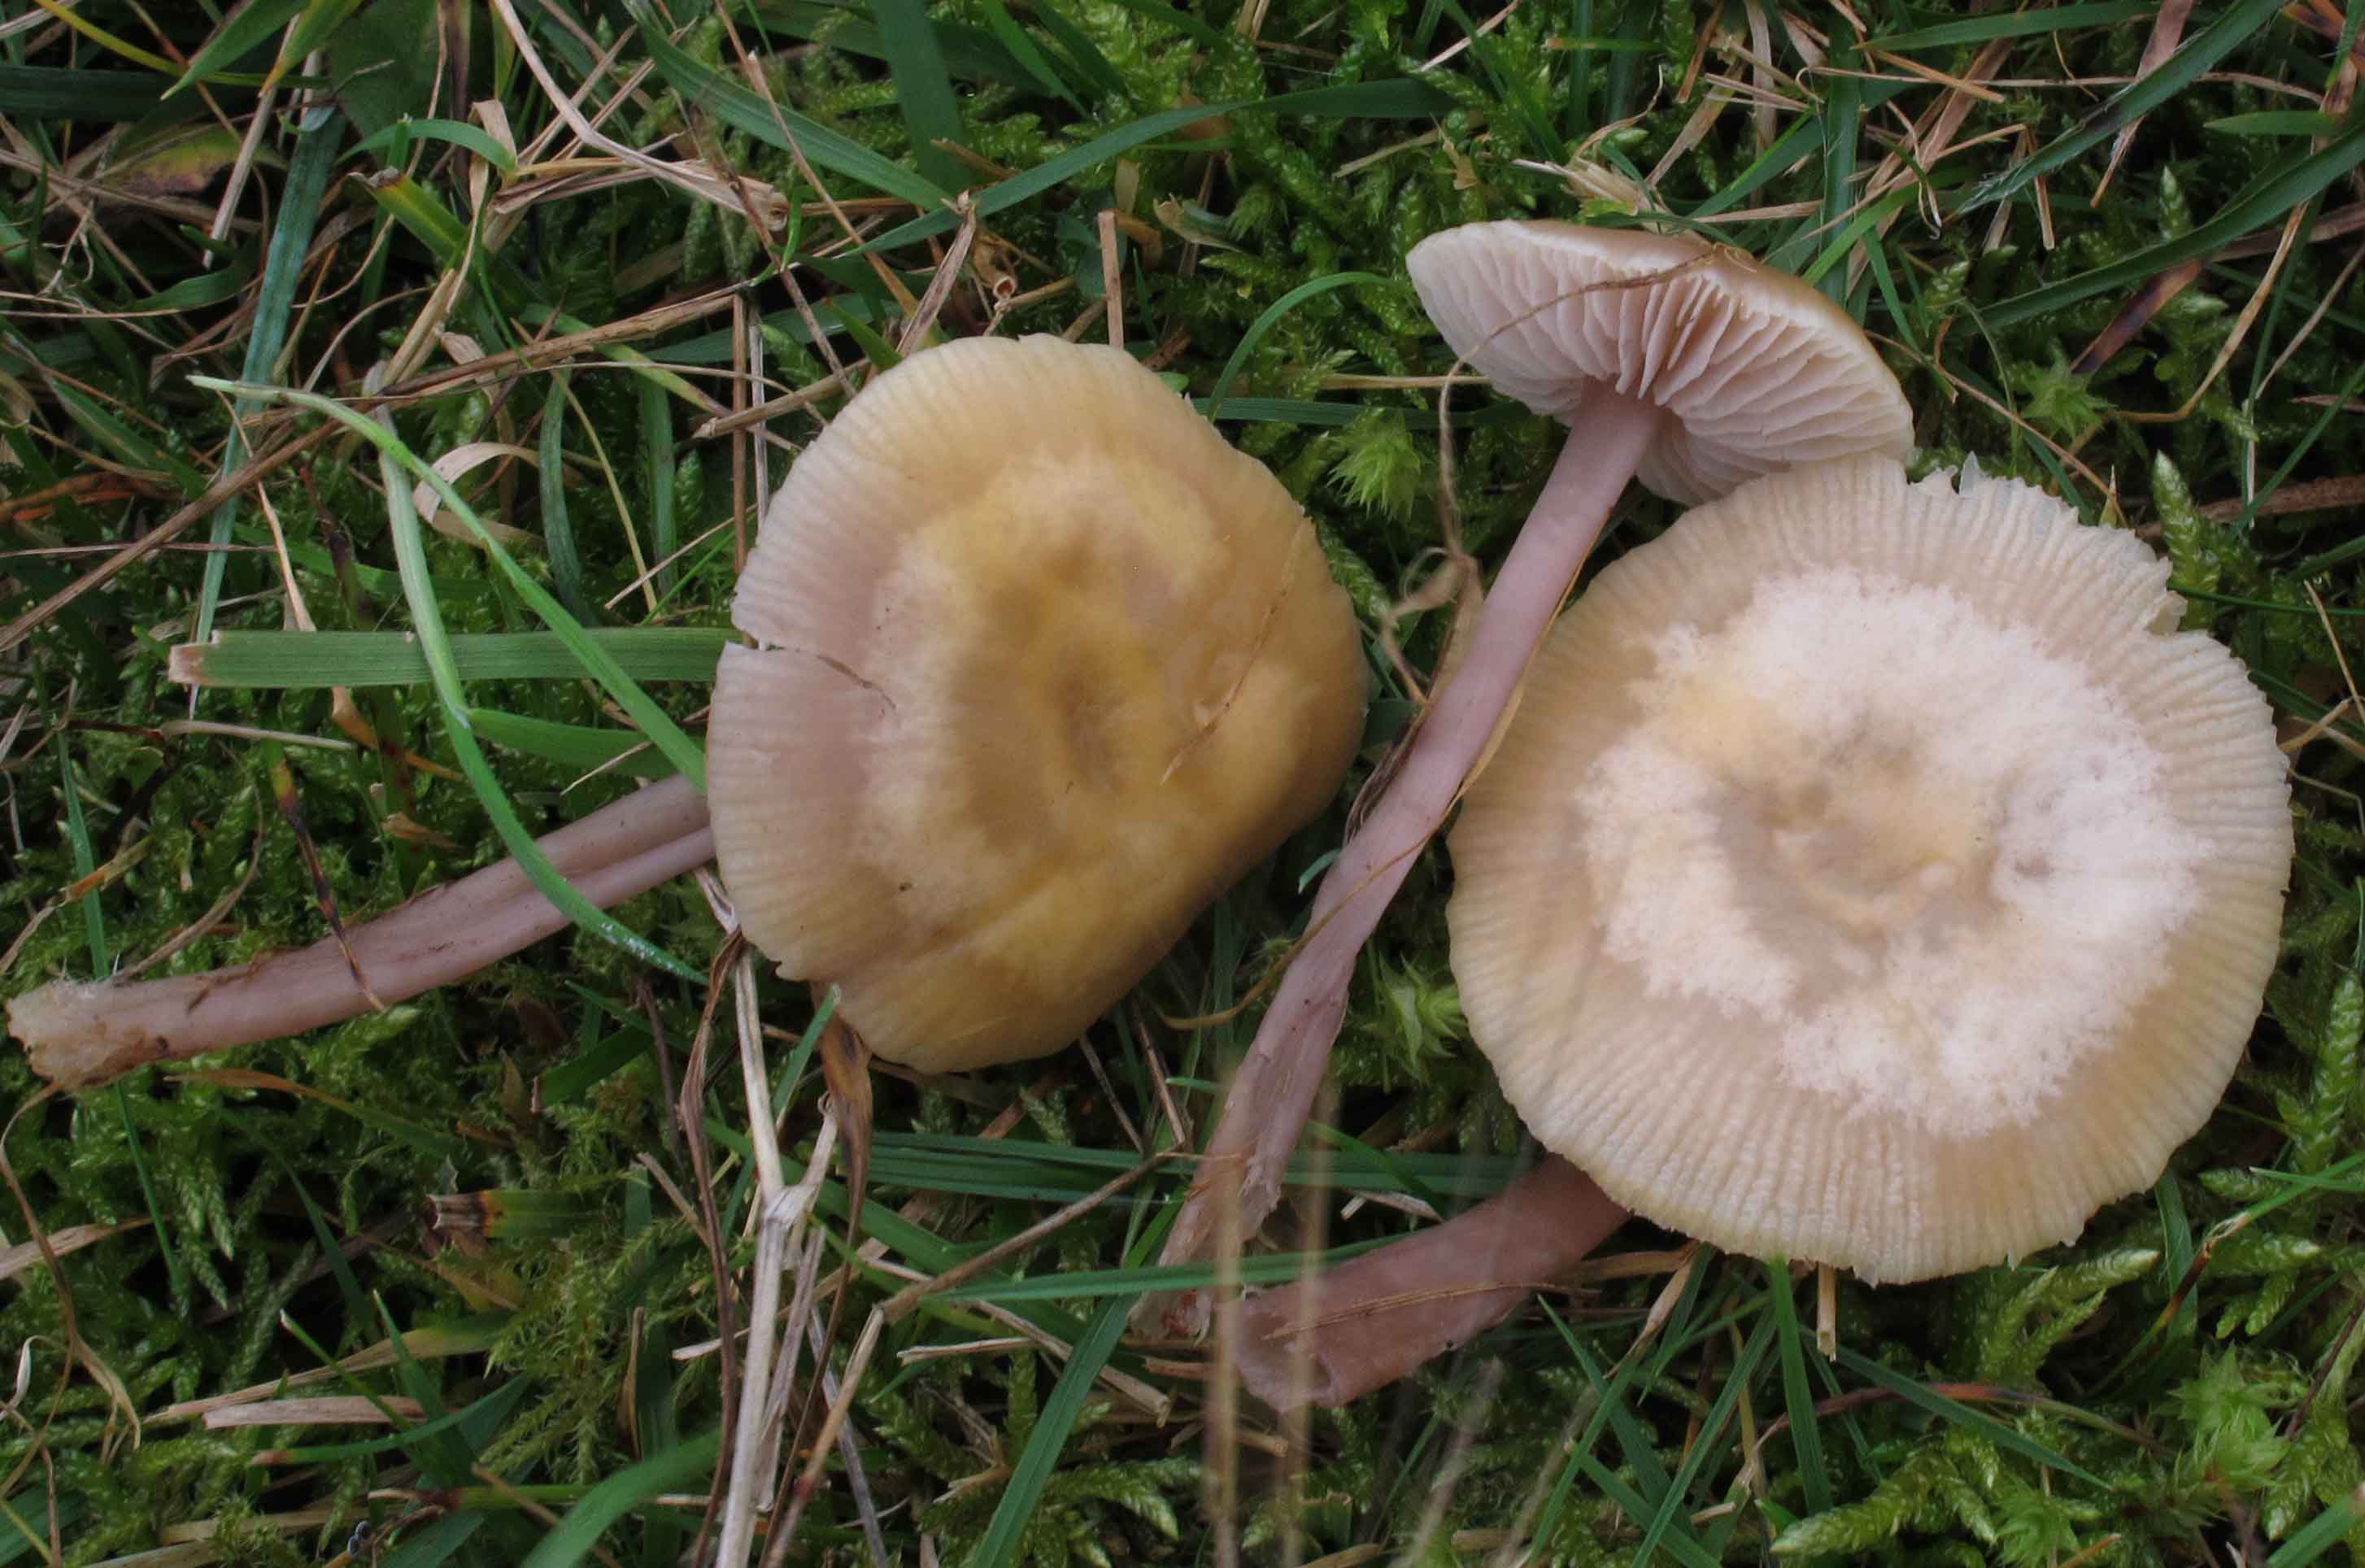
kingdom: Fungi
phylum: Basidiomycota
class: Agaricomycetes
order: Agaricales
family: Mycenaceae
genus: Mycena
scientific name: Mycena luteovariegata
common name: lillagul huesvamp
